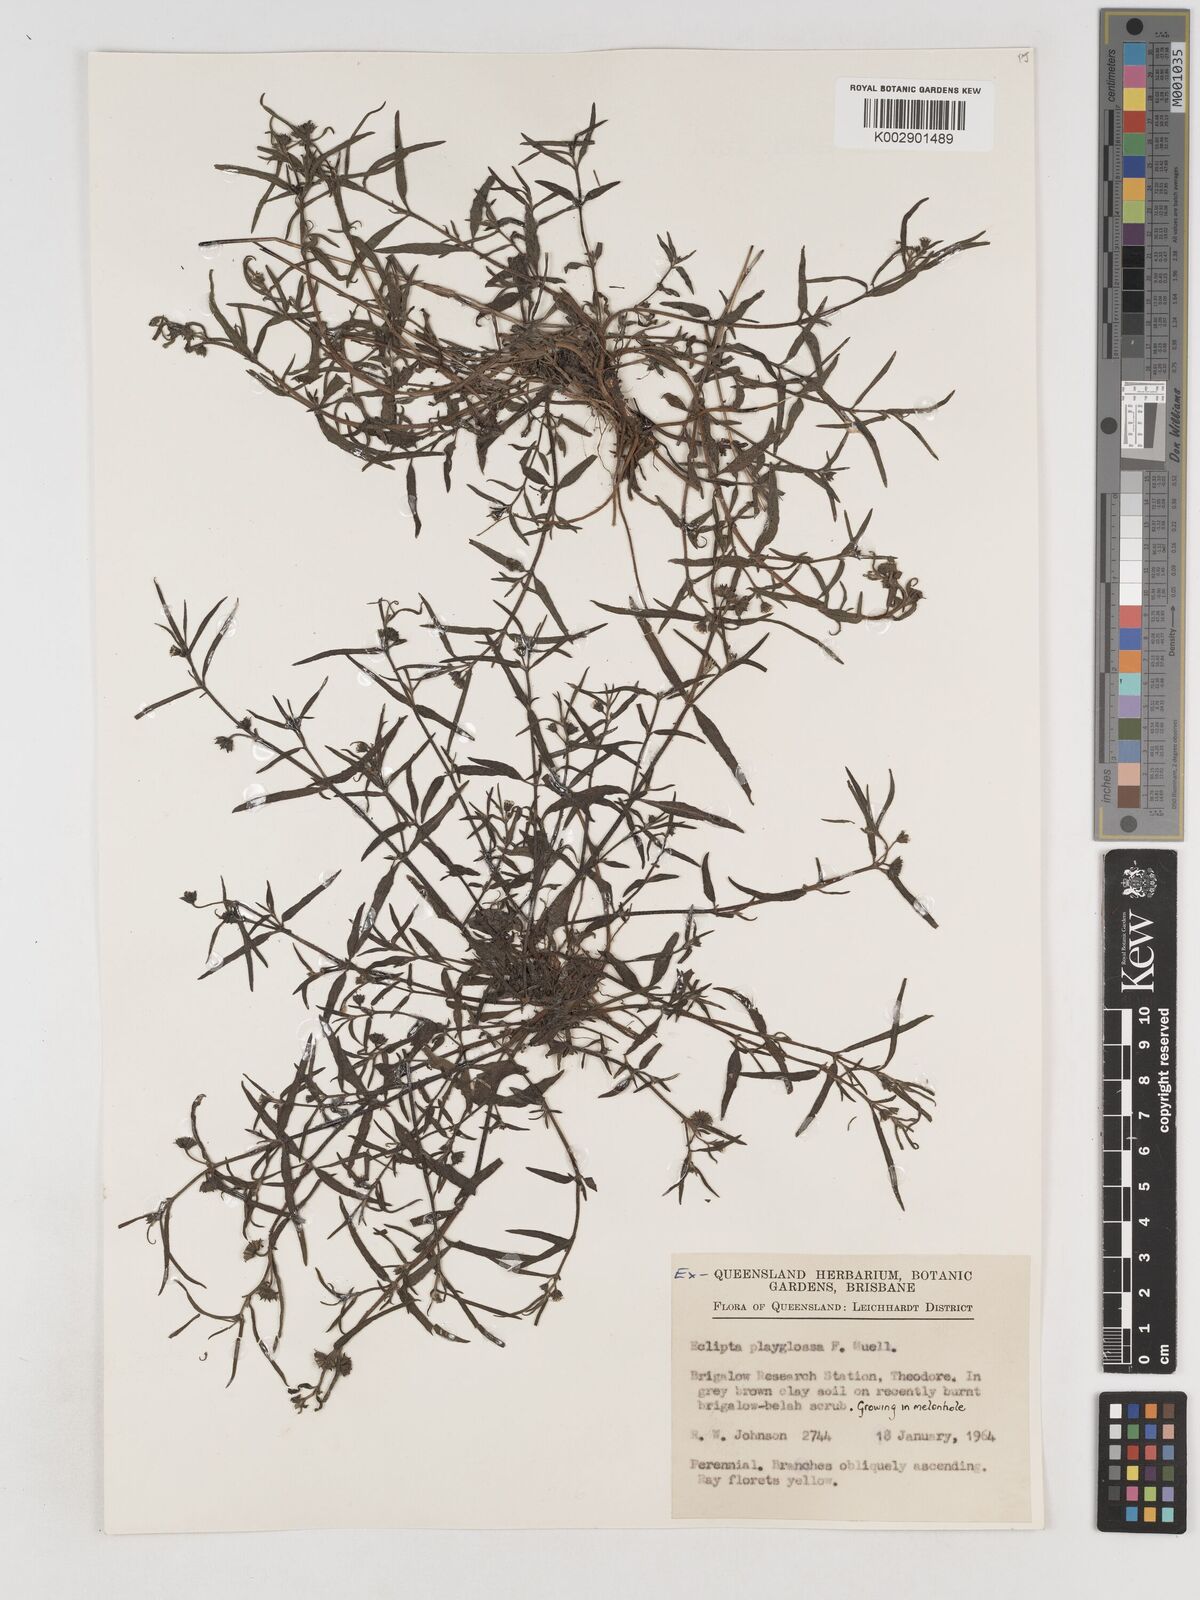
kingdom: Plantae
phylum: Tracheophyta
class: Magnoliopsida
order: Asterales
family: Asteraceae
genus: Eclipta
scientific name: Eclipta platyglossa
